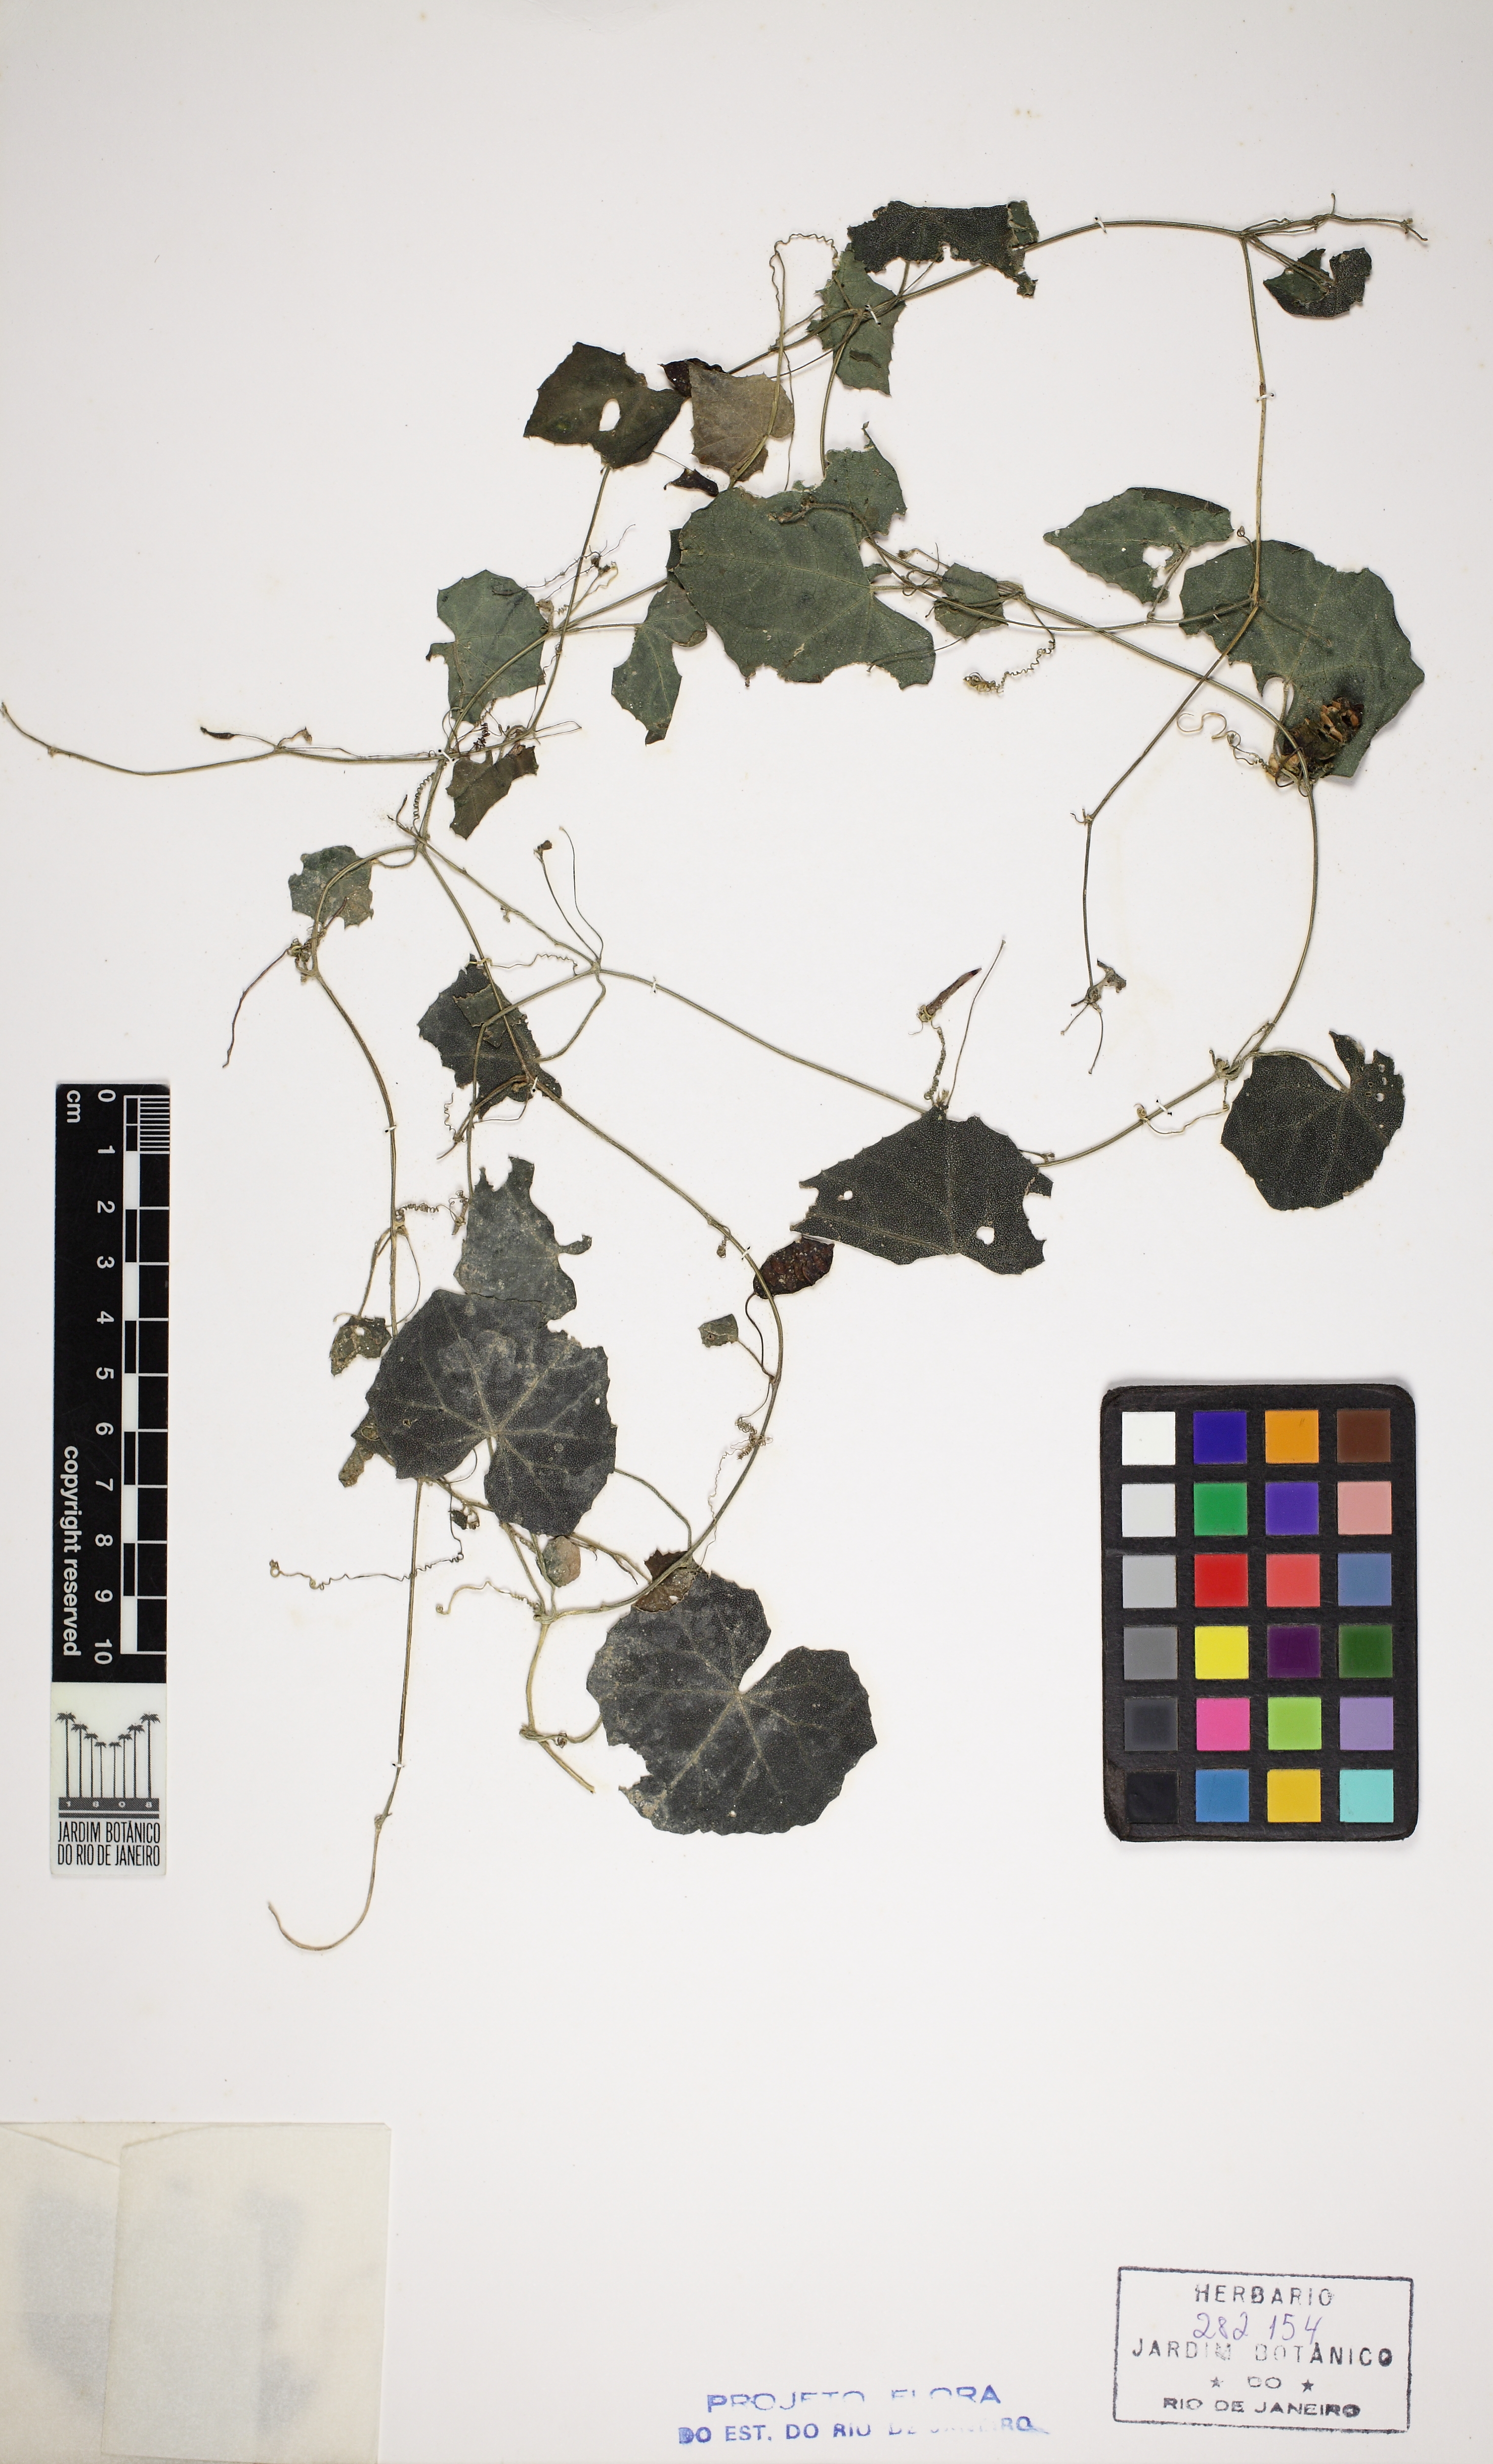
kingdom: Plantae
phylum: Tracheophyta
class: Magnoliopsida
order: Cucurbitales
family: Cucurbitaceae
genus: Melothria
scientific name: Melothria pendula
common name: Creeping-cucumber
